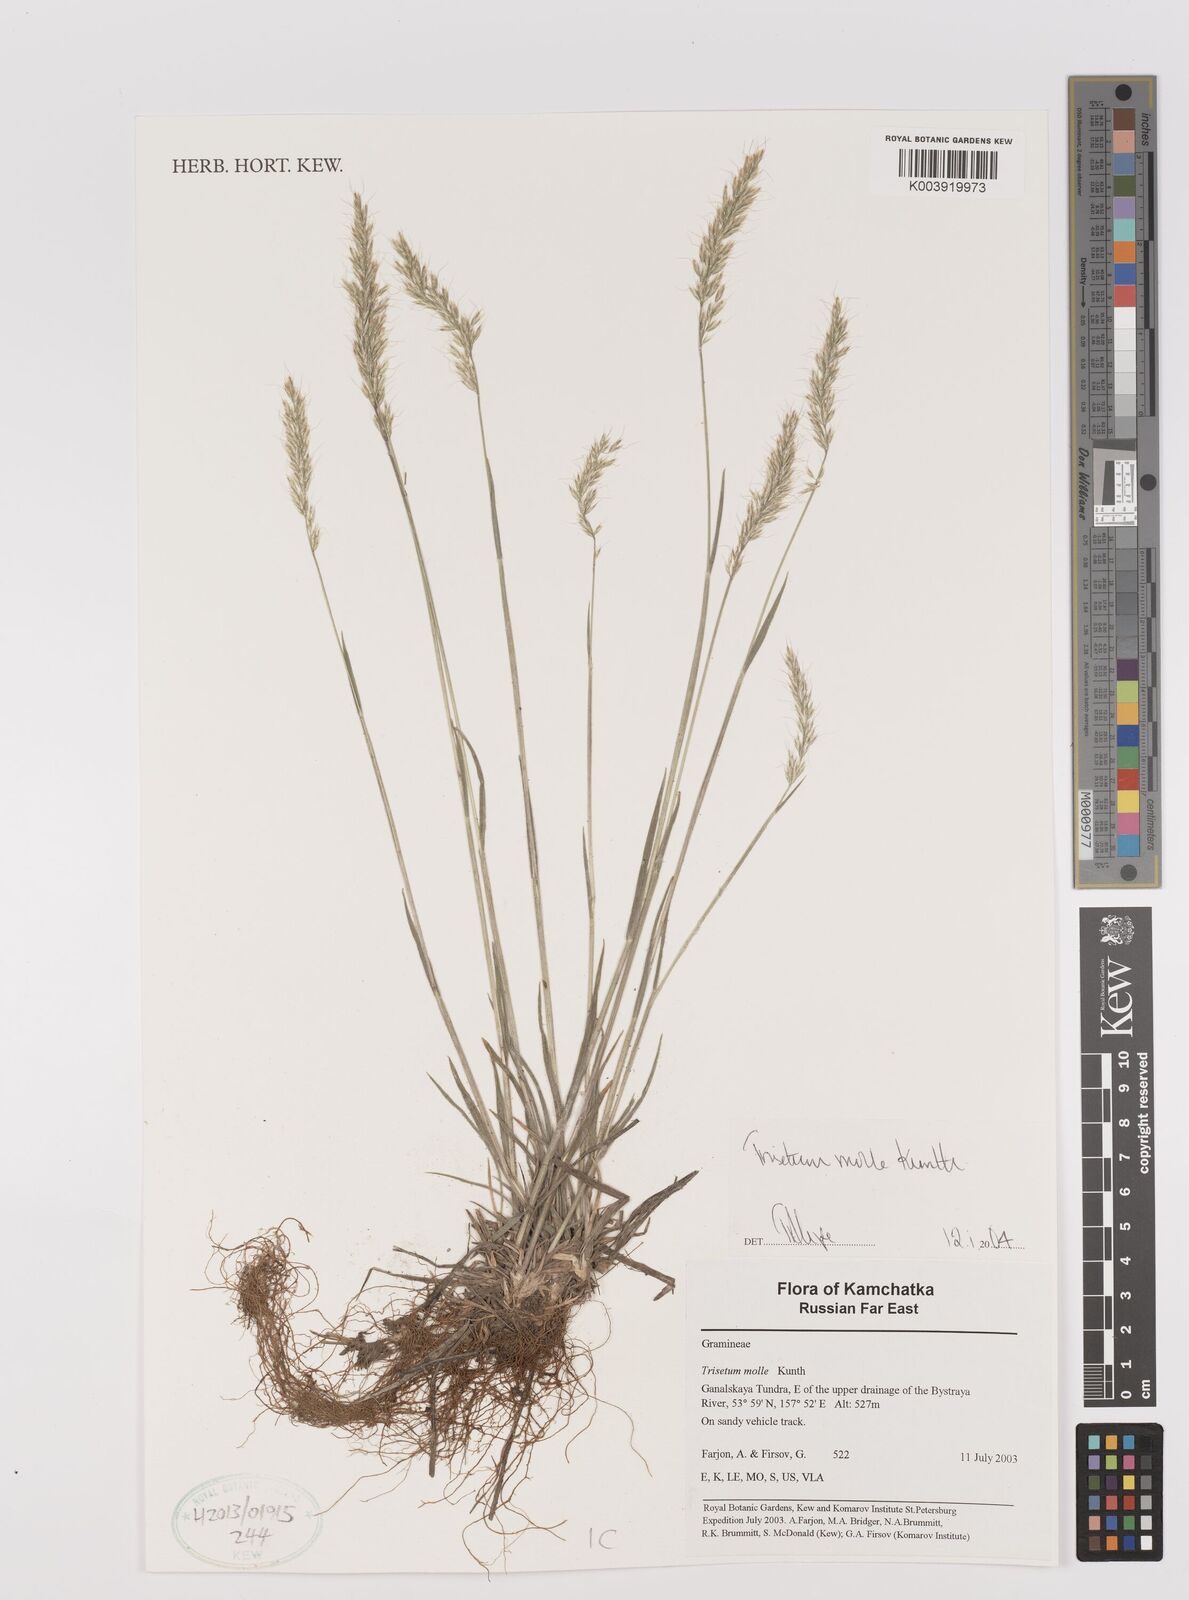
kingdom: Plantae
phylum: Tracheophyta
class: Liliopsida
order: Poales
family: Poaceae
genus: Koeleria
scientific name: Koeleria spicata
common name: Mountain trisetum
